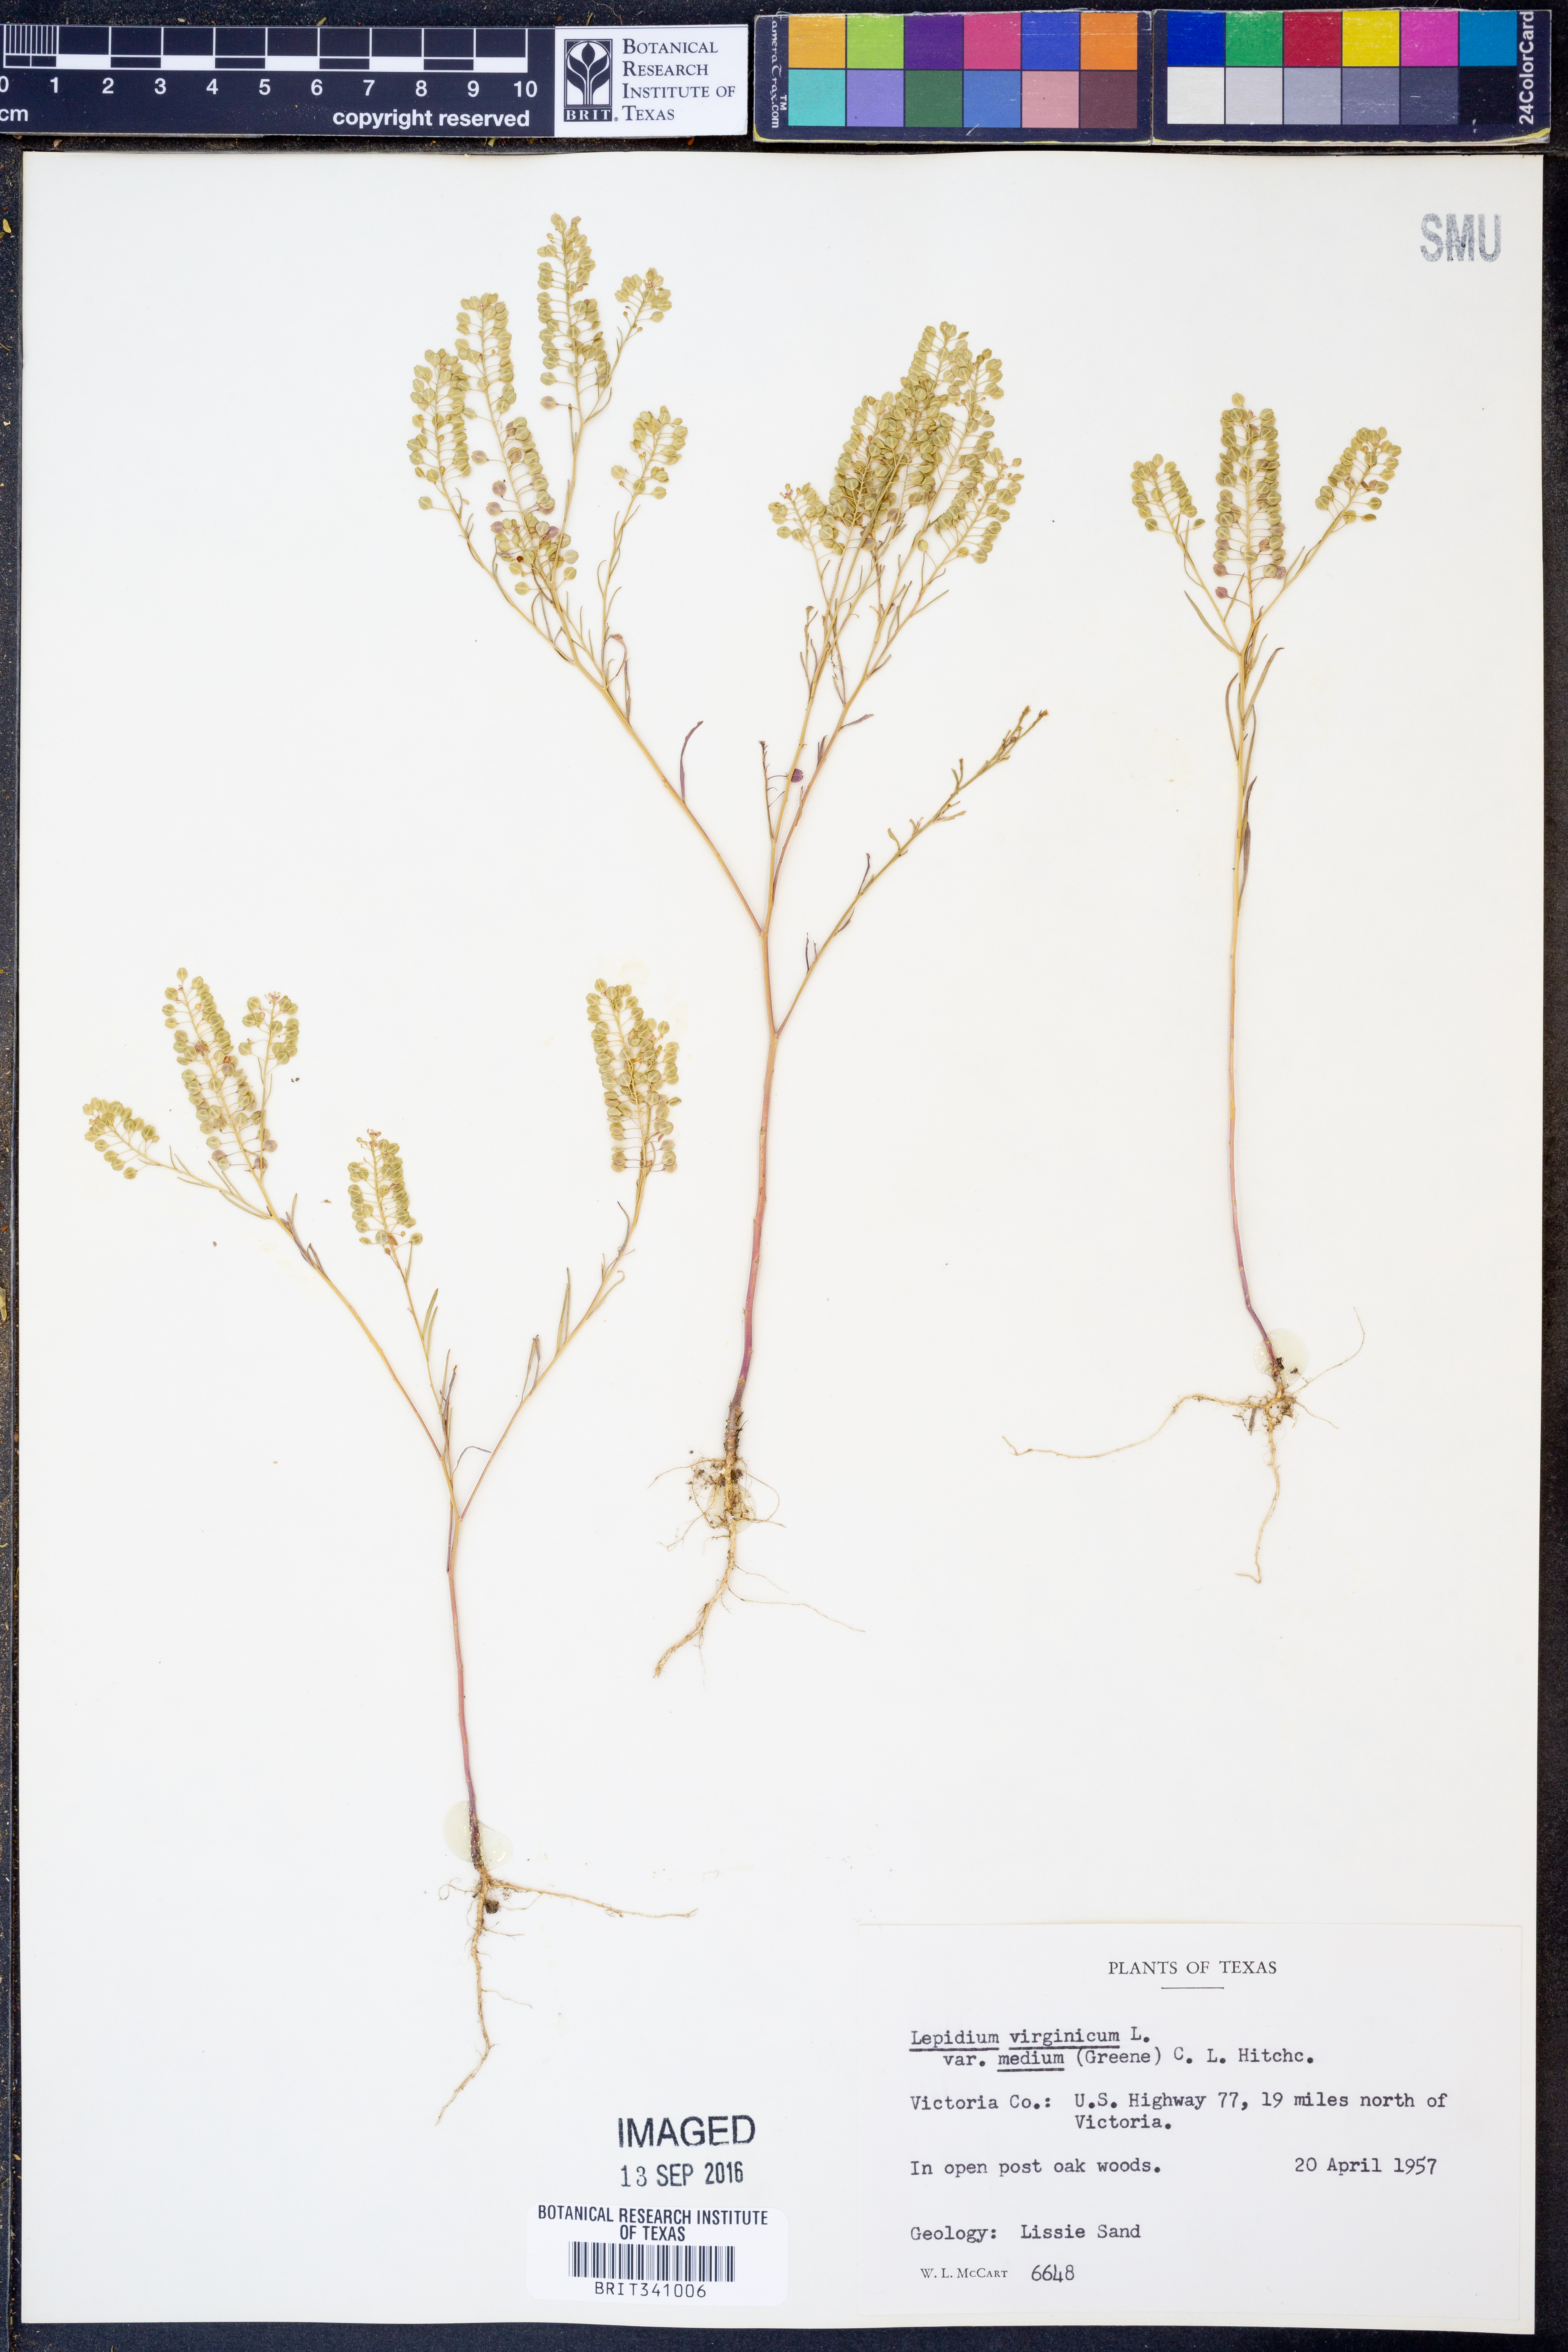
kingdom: Plantae
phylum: Tracheophyta
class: Magnoliopsida
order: Brassicales
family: Brassicaceae
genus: Lepidium
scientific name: Lepidium virginicum
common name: Least pepperwort
